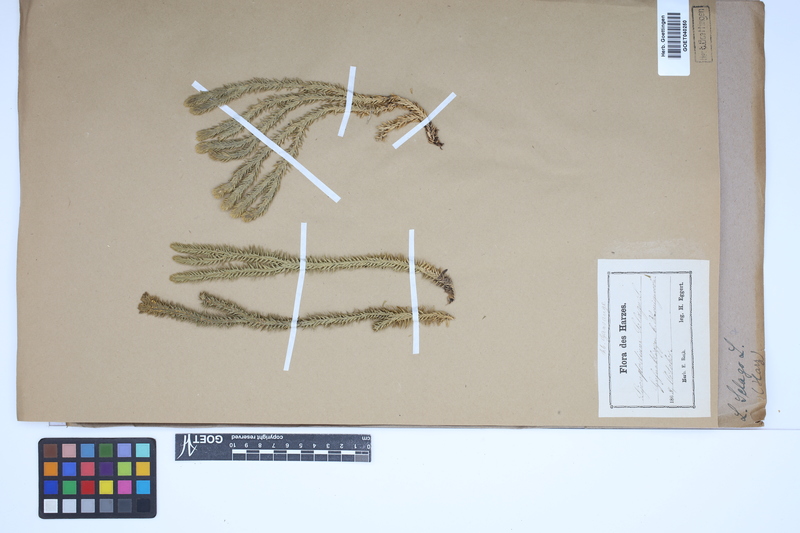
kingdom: Plantae
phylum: Tracheophyta
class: Lycopodiopsida
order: Lycopodiales
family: Lycopodiaceae
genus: Huperzia
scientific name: Huperzia selago
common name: Northern firmoss
